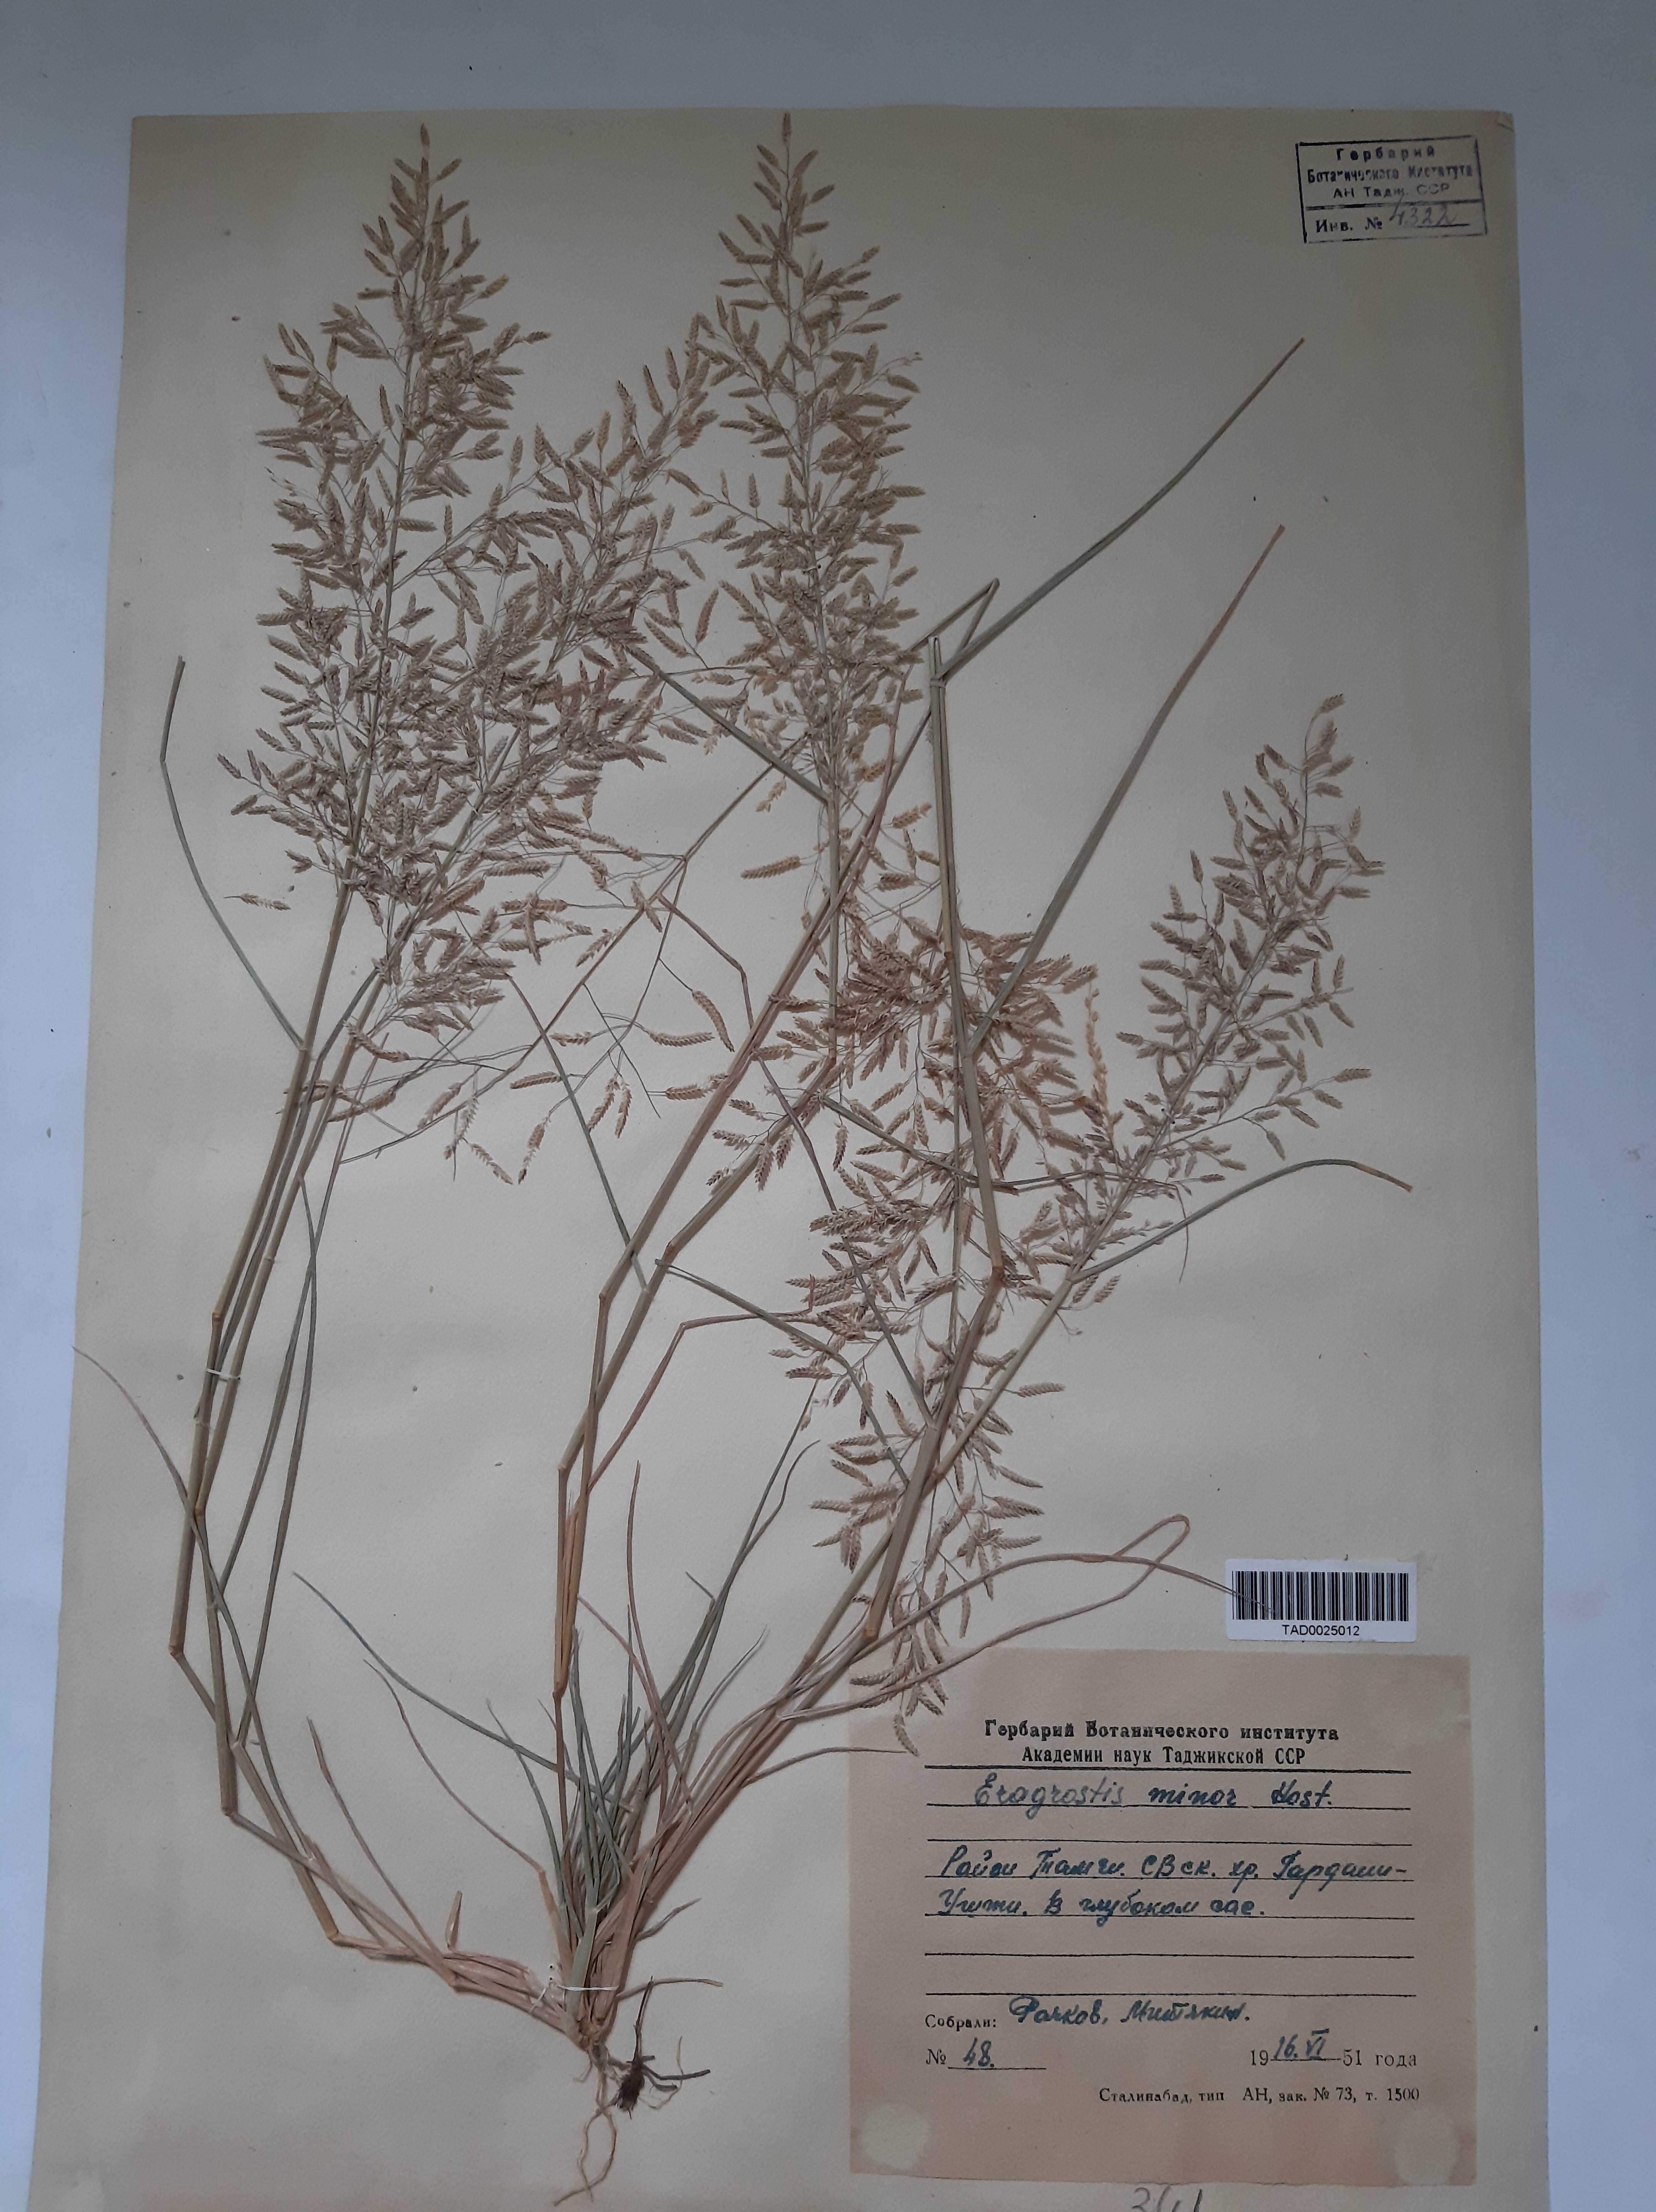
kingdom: Plantae
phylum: Tracheophyta
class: Liliopsida
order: Poales
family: Poaceae
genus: Eragrostis
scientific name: Eragrostis minor
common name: Small love-grass
